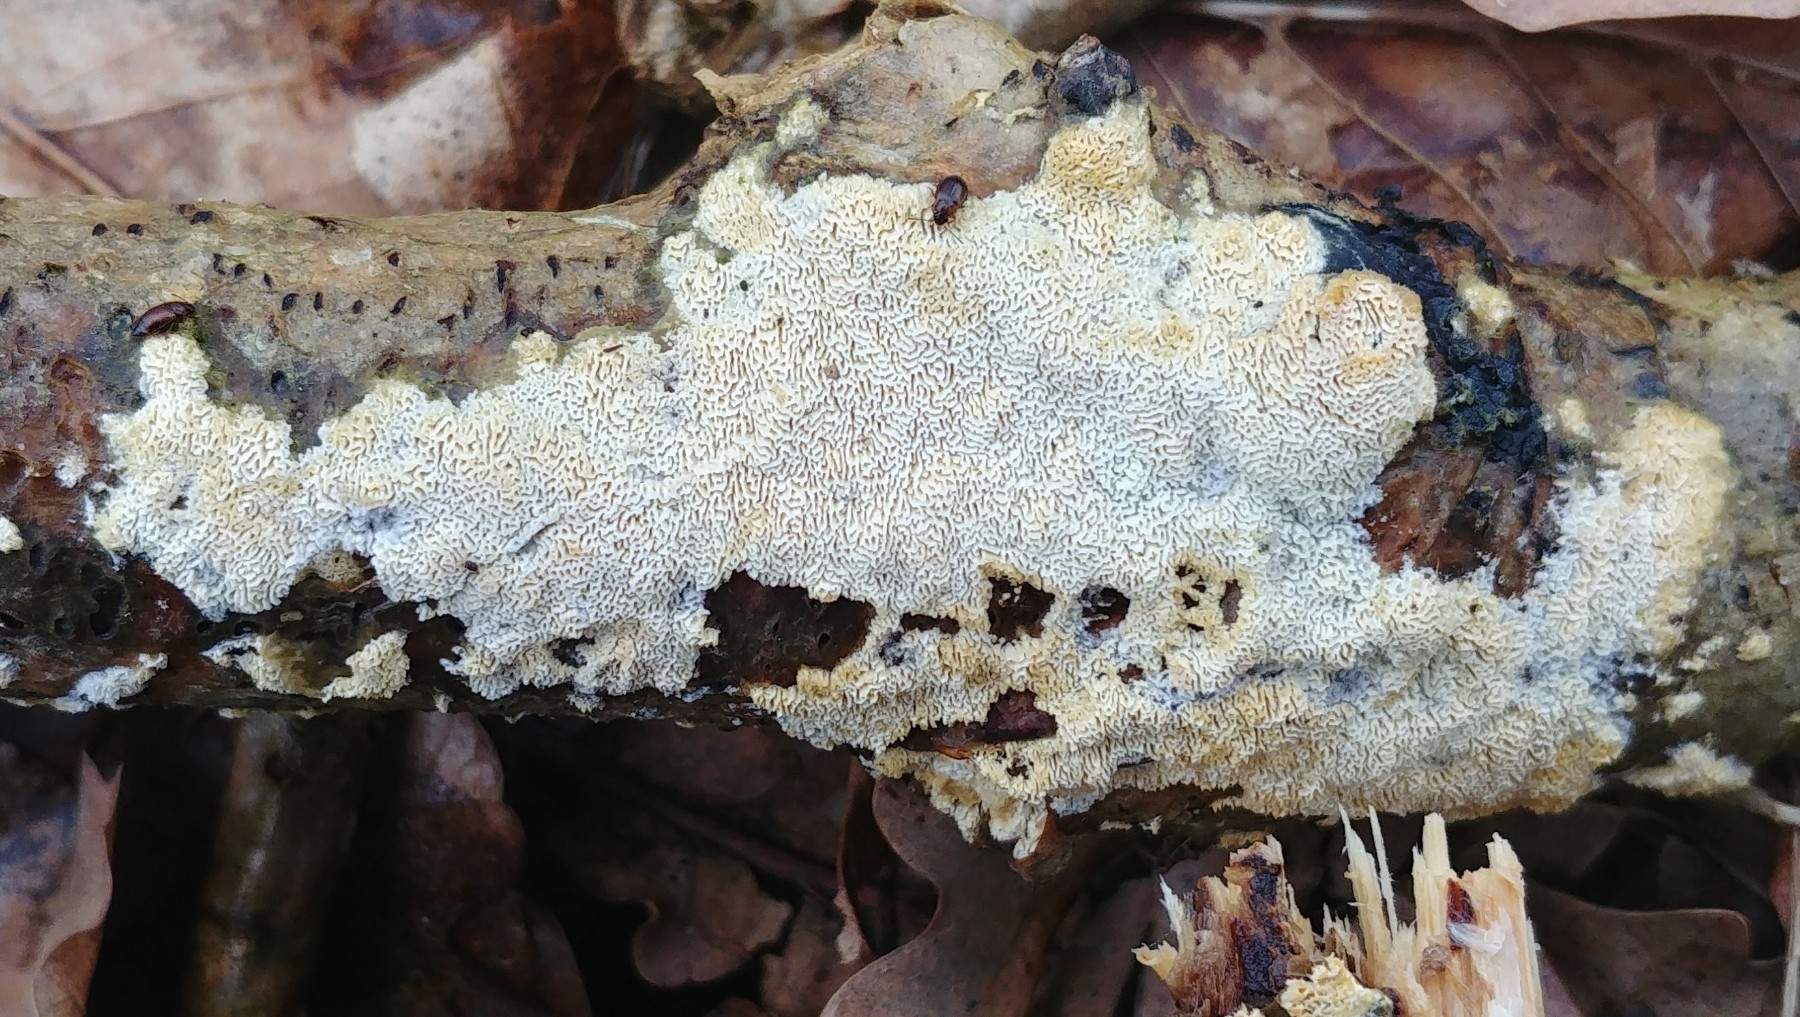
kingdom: Fungi
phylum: Basidiomycota
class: Agaricomycetes
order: Hymenochaetales
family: Schizoporaceae
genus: Xylodon
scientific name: Xylodon subtropicus
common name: labyrint-tandsvamp
